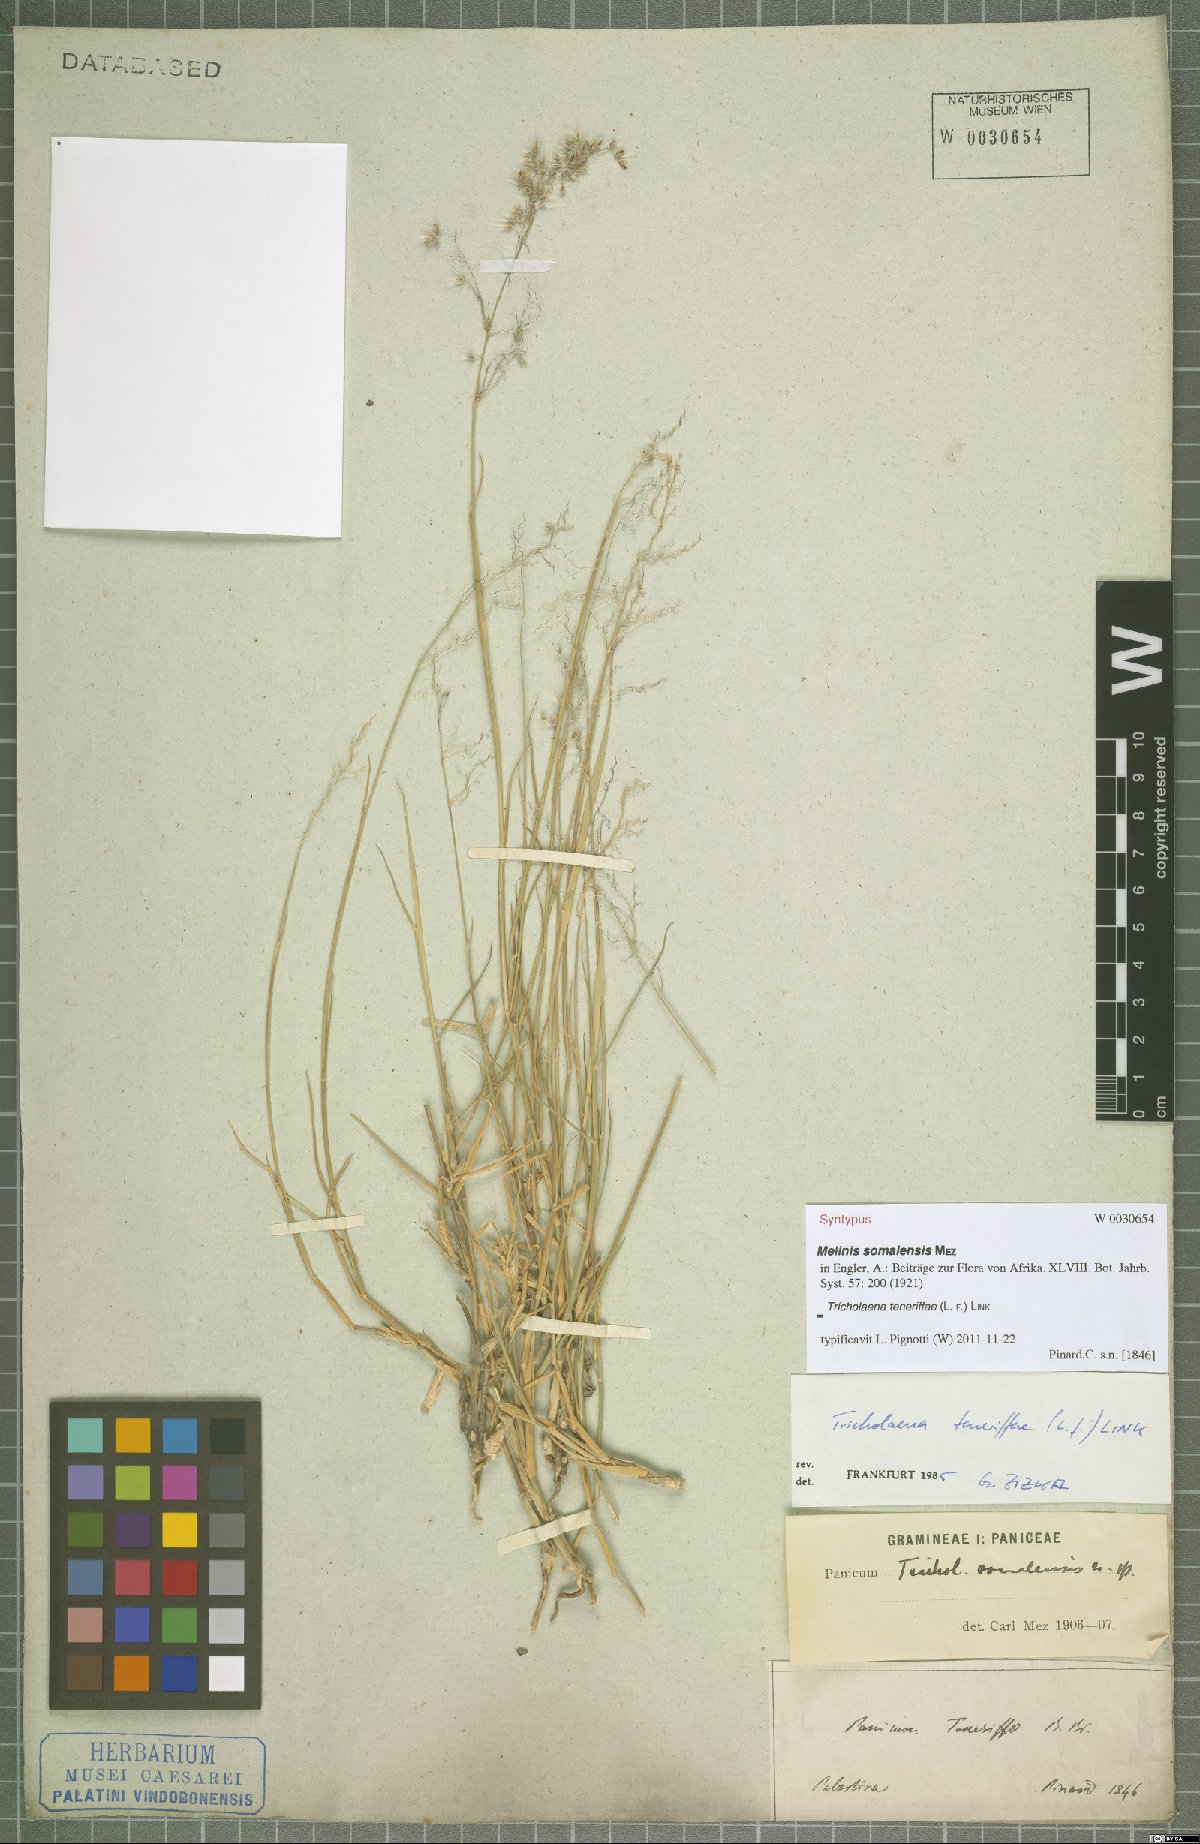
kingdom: Plantae
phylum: Tracheophyta
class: Liliopsida
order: Poales
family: Poaceae
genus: Tricholaena
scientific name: Tricholaena teneriffae
